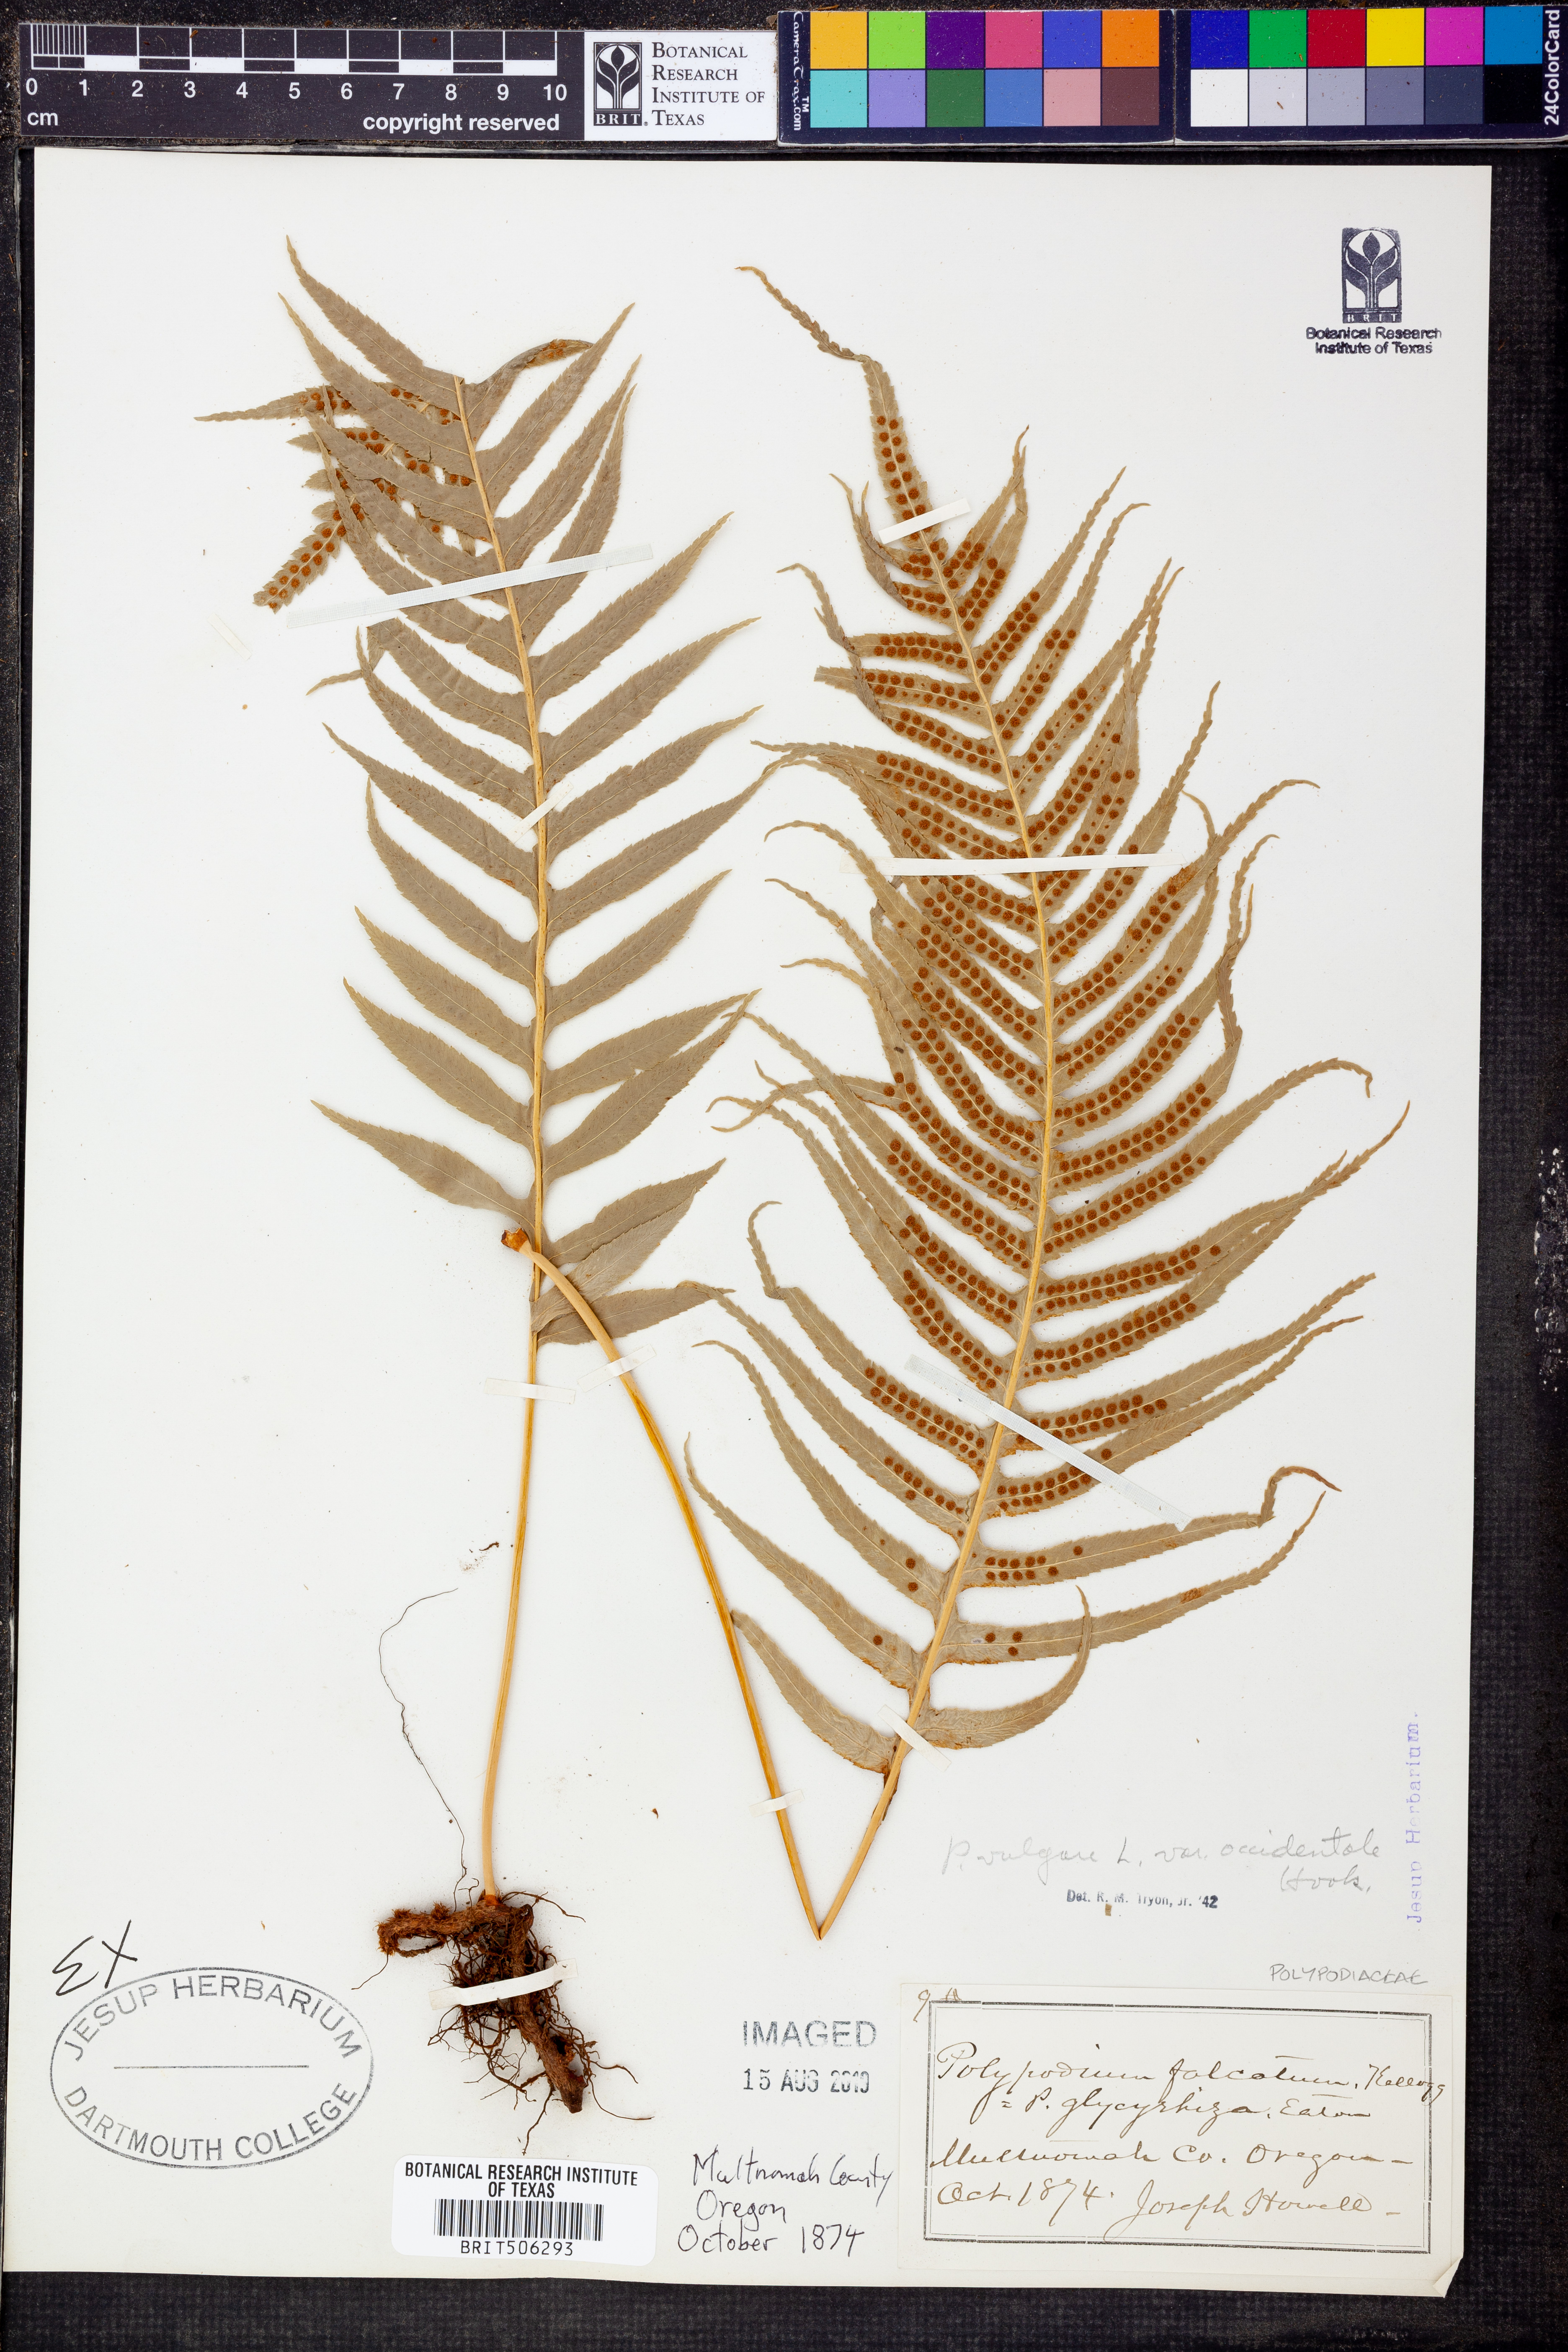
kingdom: Plantae
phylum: Tracheophyta
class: Polypodiopsida
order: Polypodiales
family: Polypodiaceae
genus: Polypodium
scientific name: Polypodium glycyrrhiza
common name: Licorice fern
